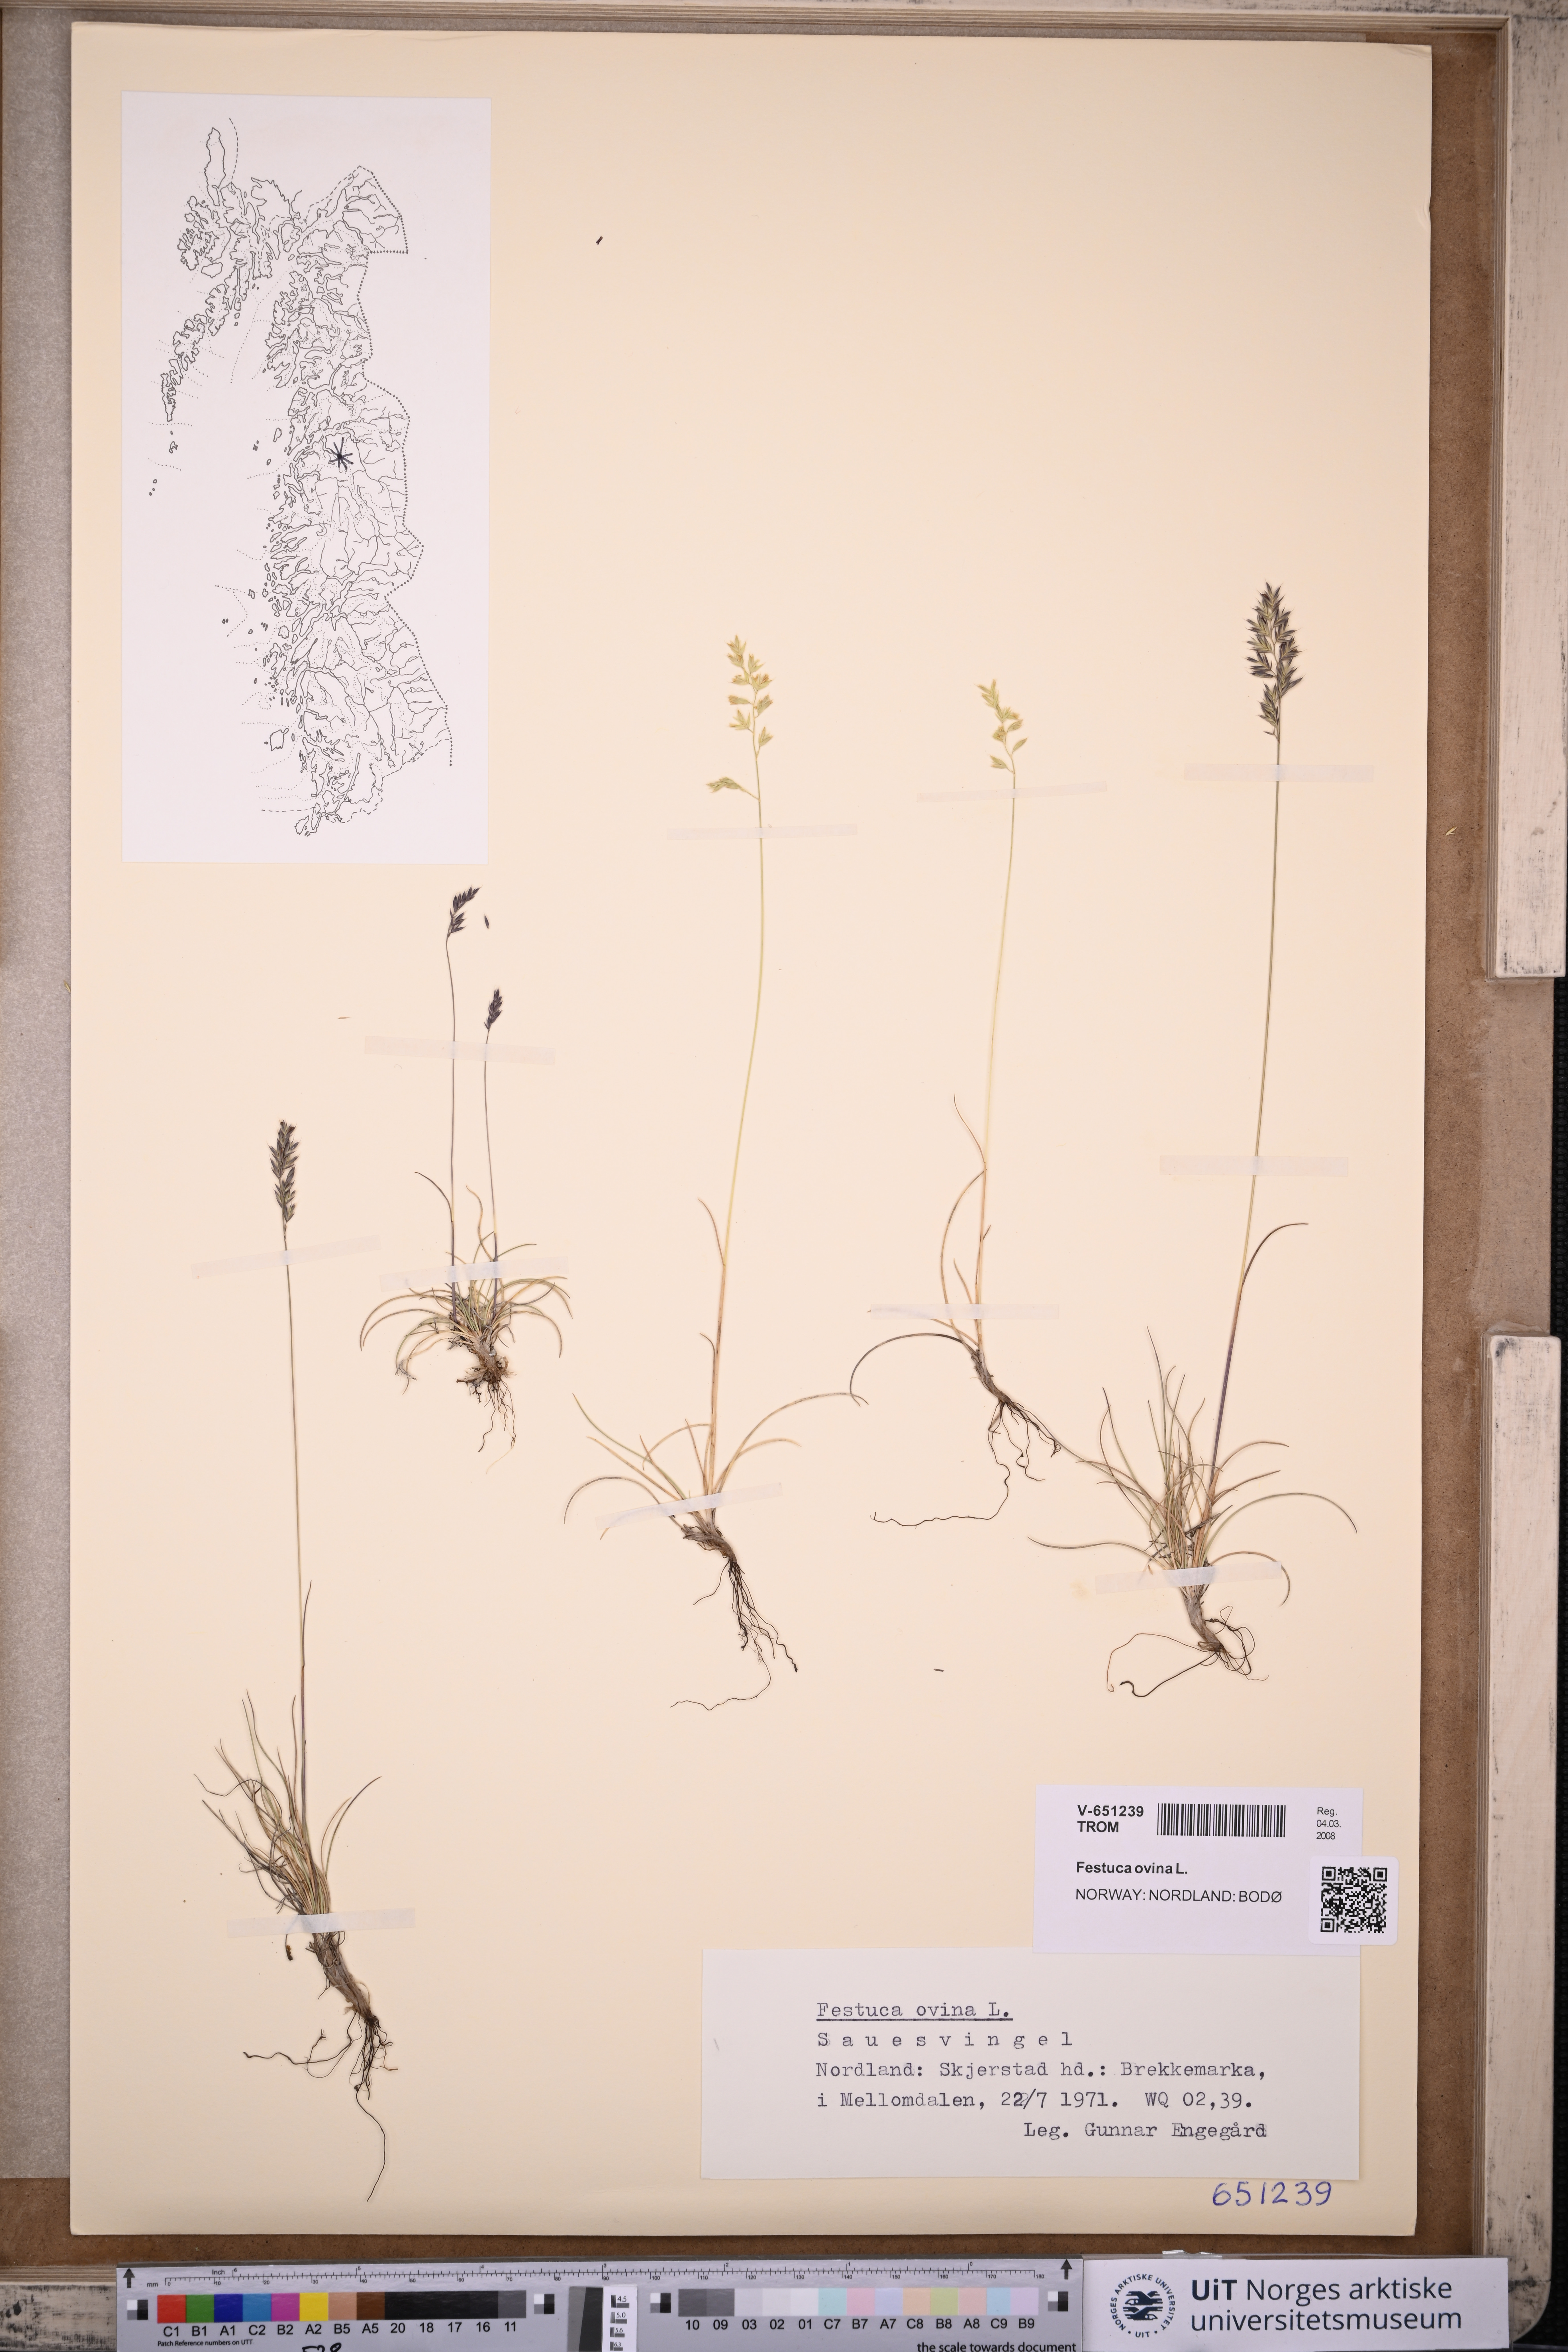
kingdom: Plantae
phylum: Tracheophyta
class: Liliopsida
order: Poales
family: Poaceae
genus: Festuca
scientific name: Festuca ovina
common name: Sheep fescue
